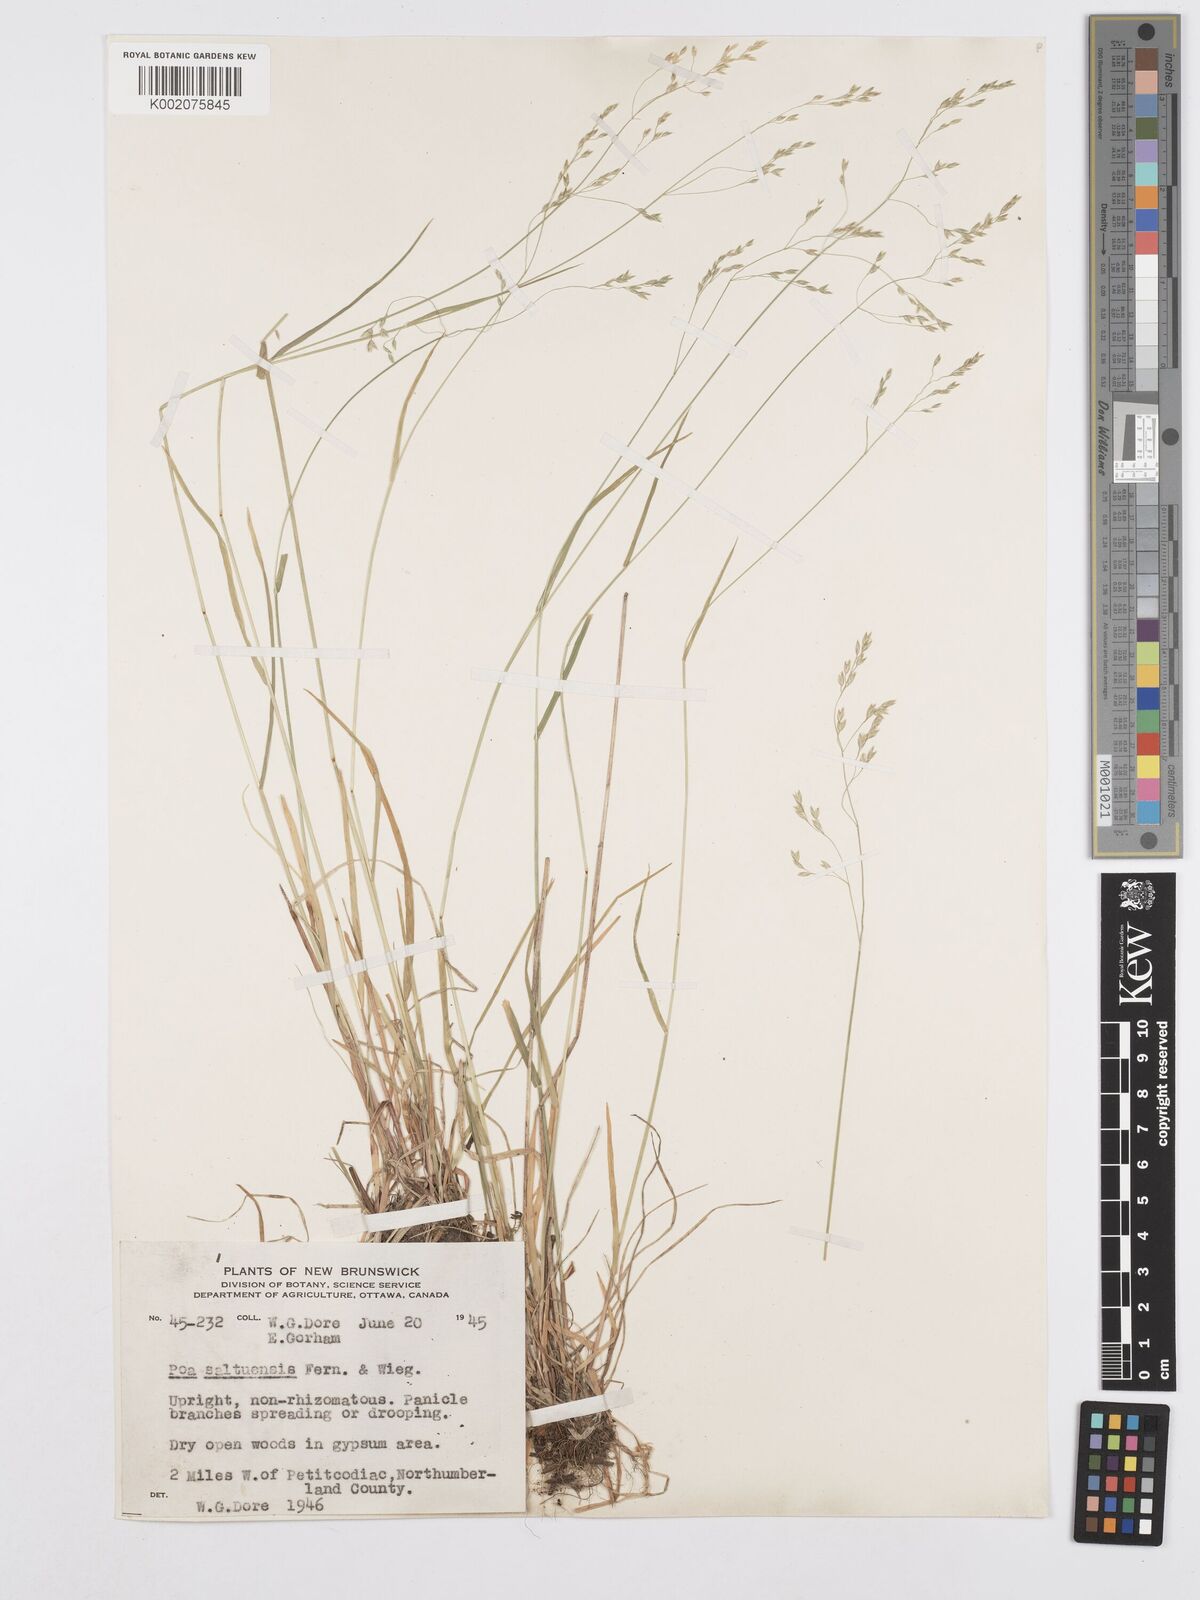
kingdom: Plantae
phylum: Tracheophyta
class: Liliopsida
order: Poales
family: Poaceae
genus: Poa
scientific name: Poa saltuensis
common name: Bushy pasture speargrass
